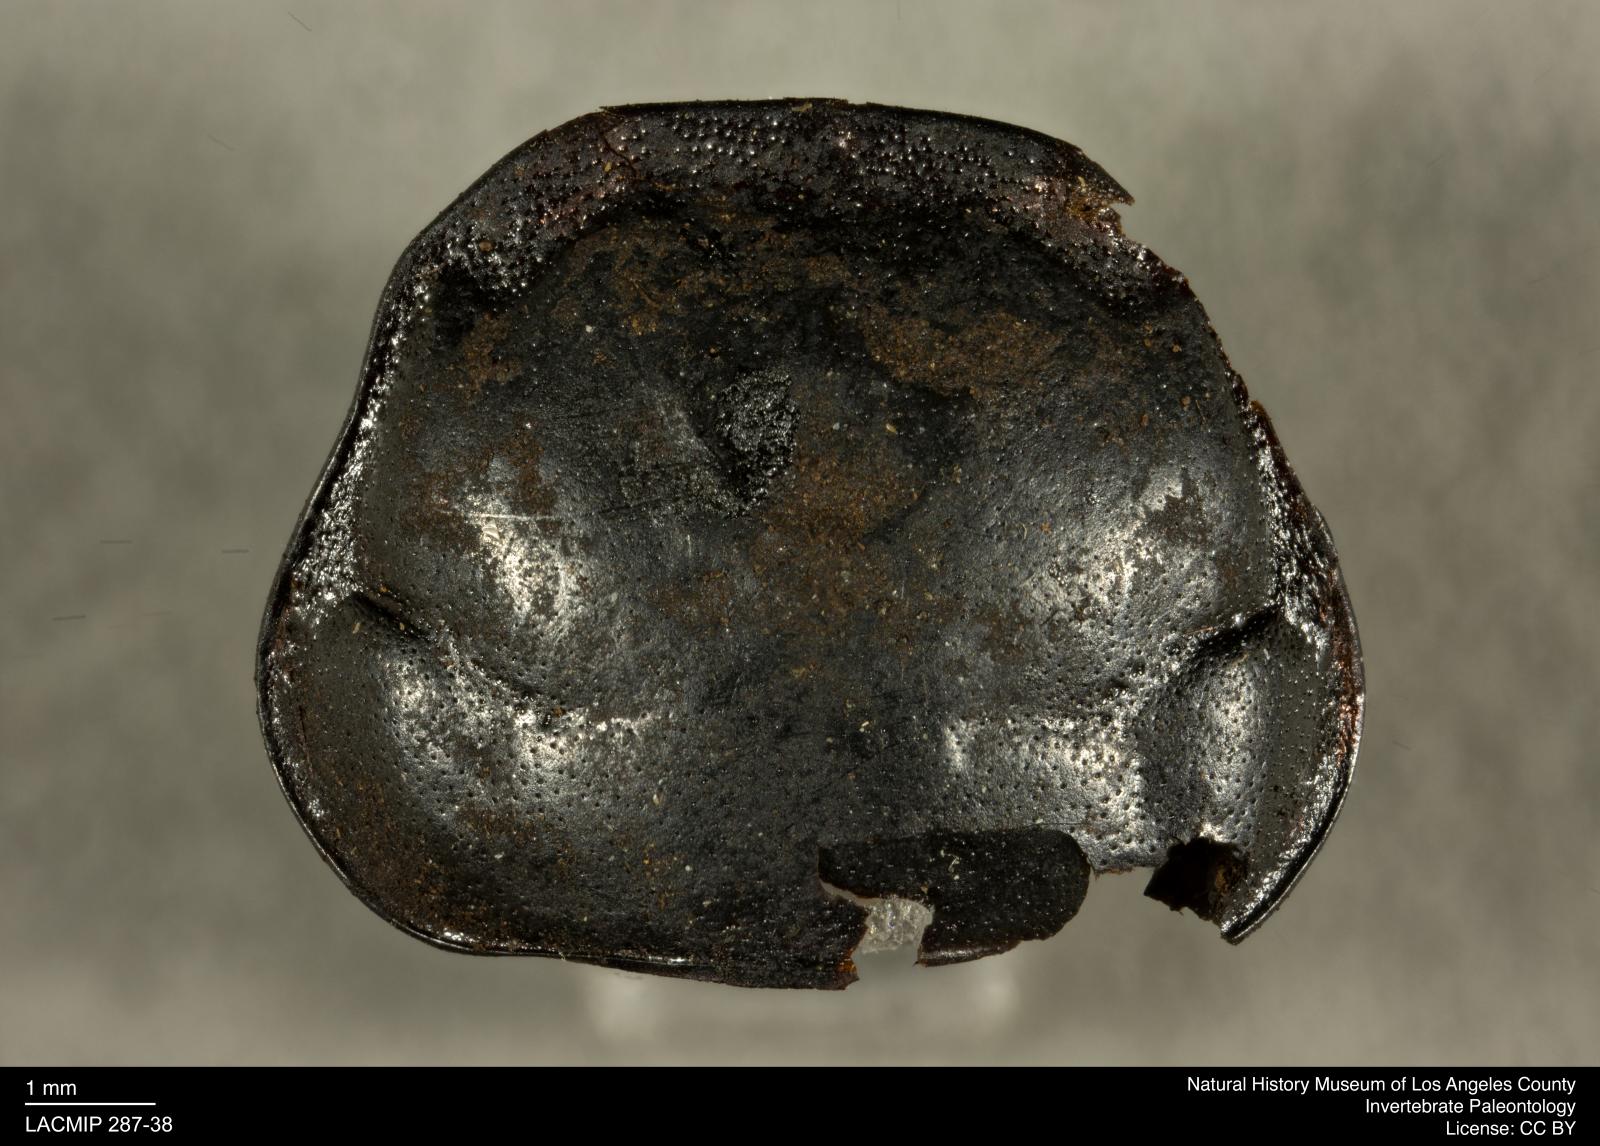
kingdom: Animalia
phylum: Arthropoda
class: Insecta
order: Coleoptera
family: Staphylinidae
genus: Nicrophorus
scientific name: Nicrophorus marginatus
